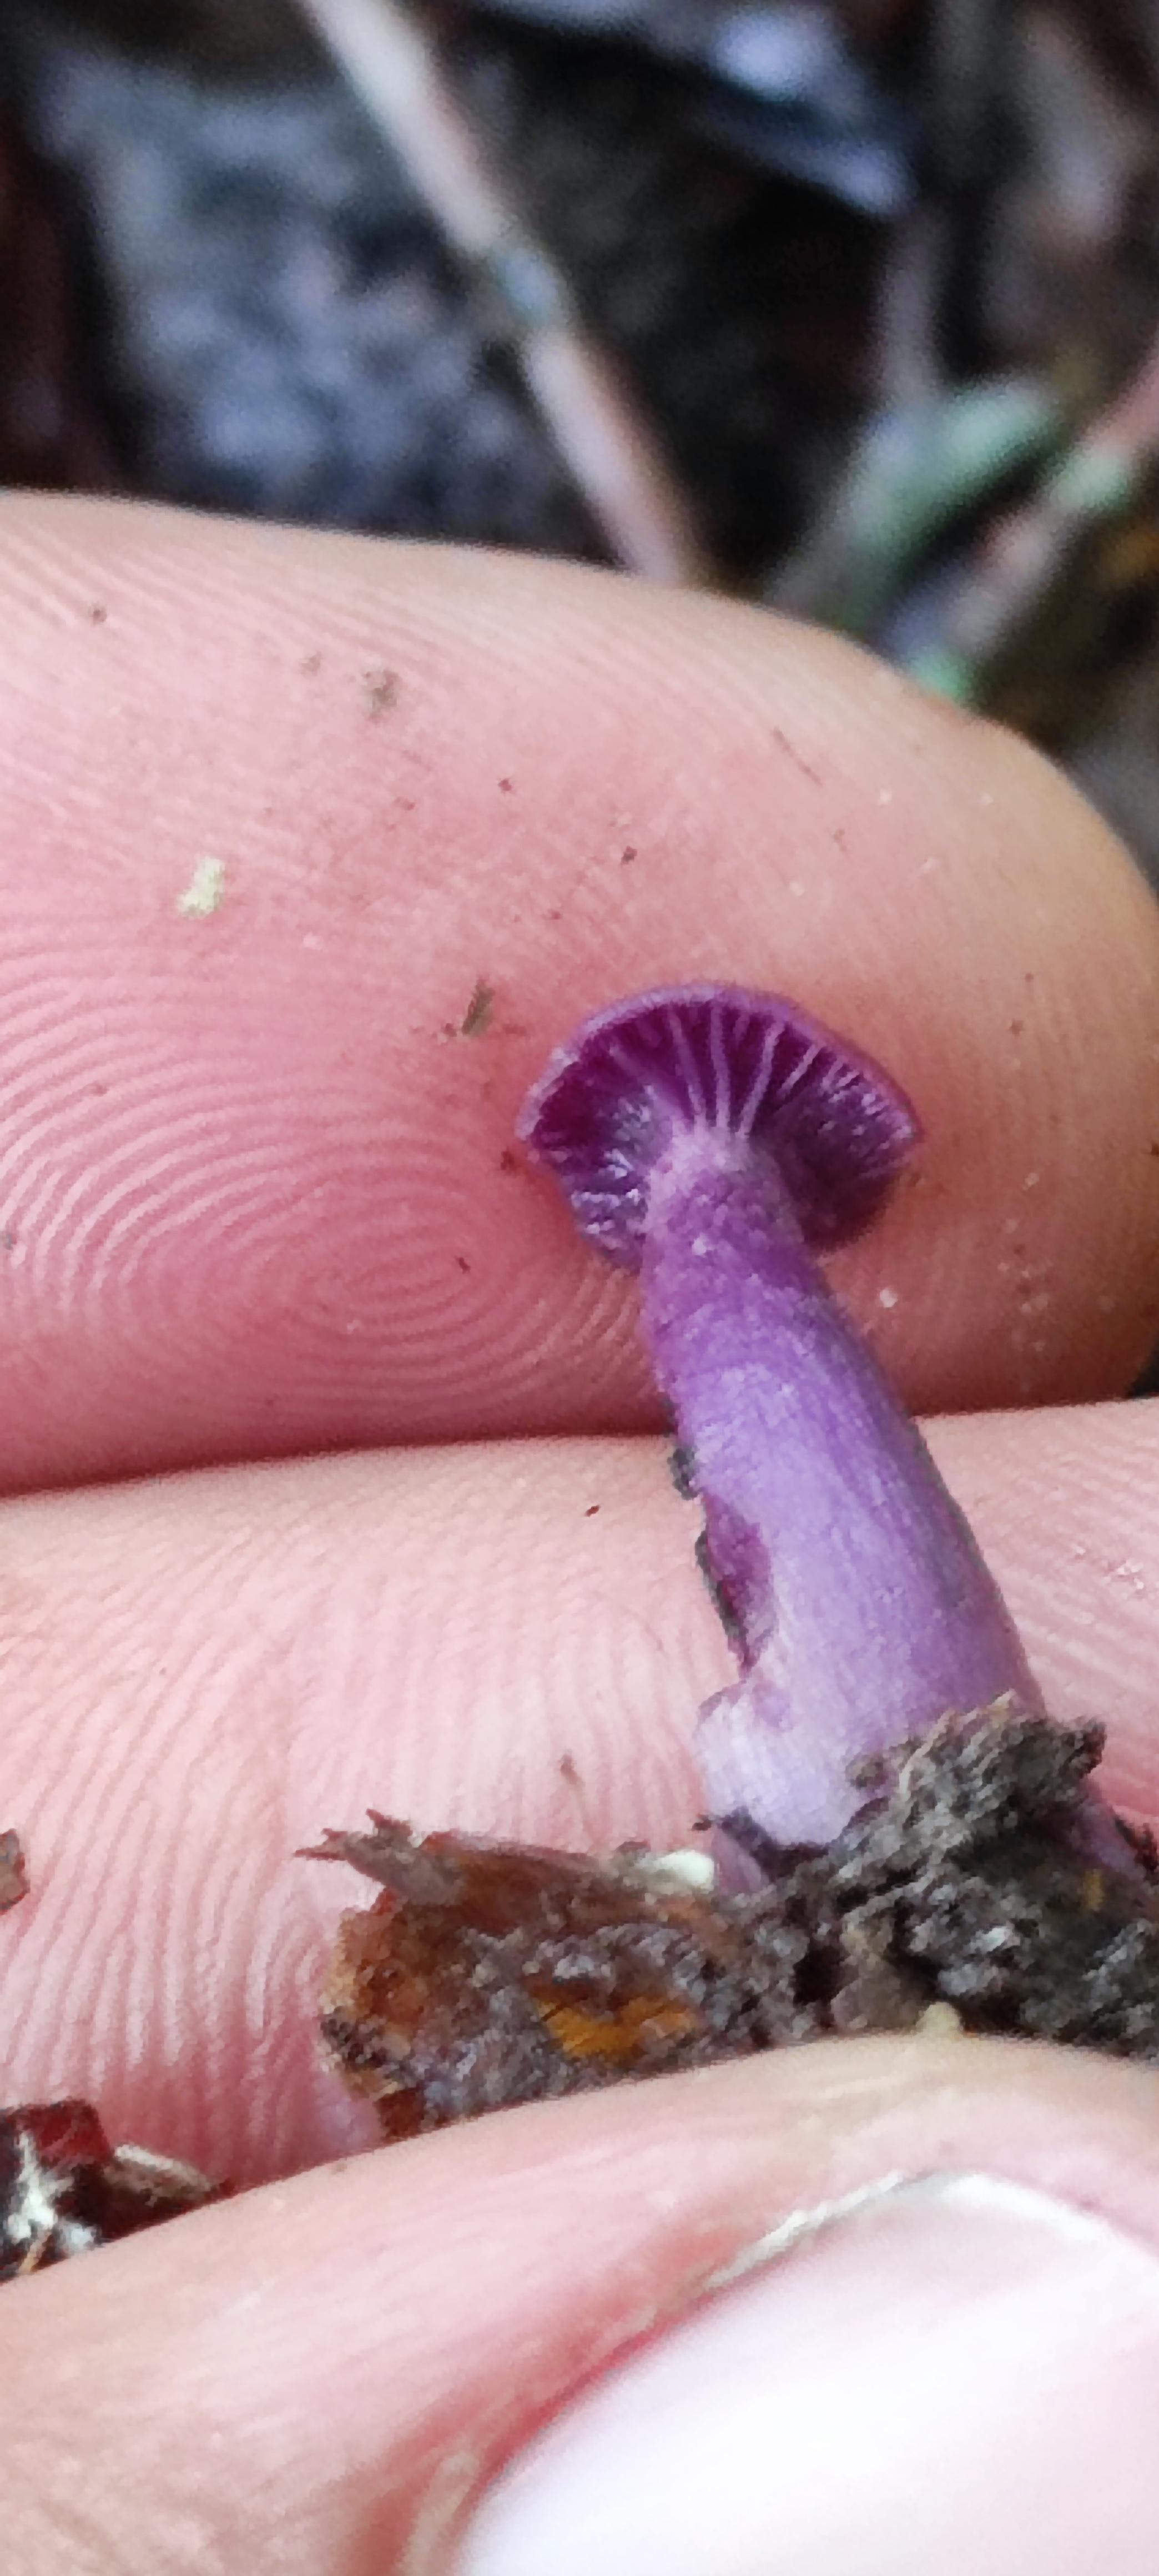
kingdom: Fungi
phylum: Basidiomycota
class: Agaricomycetes
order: Agaricales
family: Hydnangiaceae
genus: Laccaria
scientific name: Laccaria amethystina
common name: violet ametysthat
